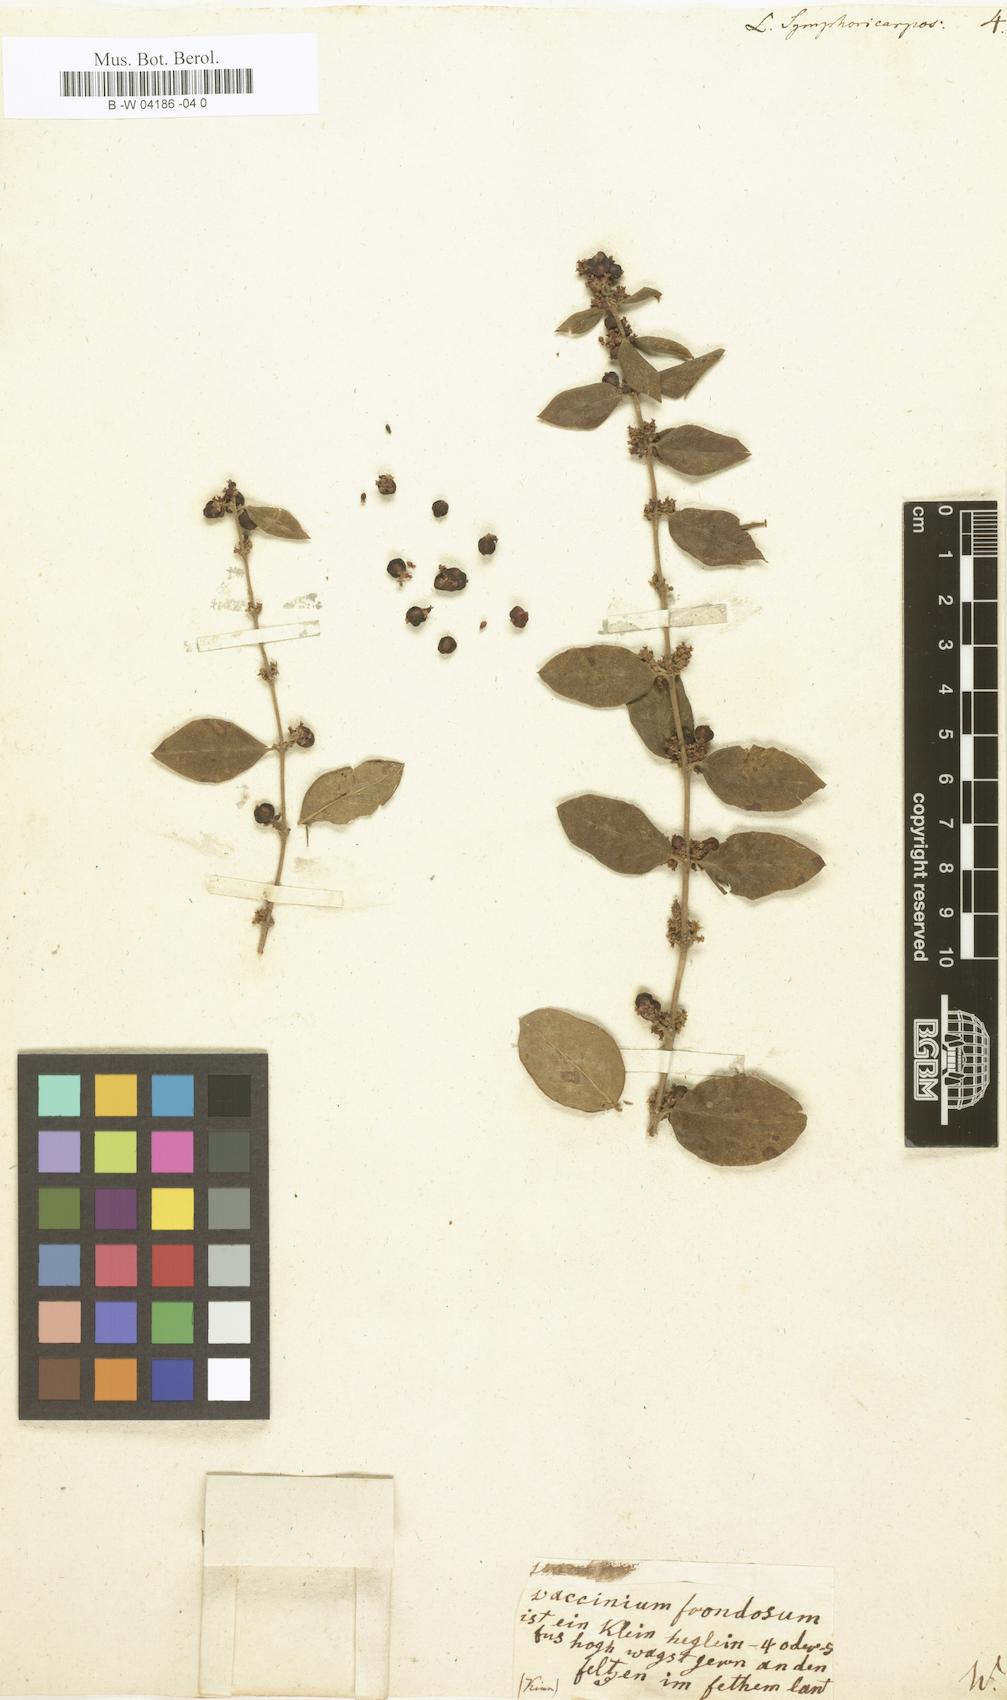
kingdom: Plantae
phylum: Tracheophyta
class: Magnoliopsida
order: Dipsacales
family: Caprifoliaceae
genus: Symphoricarpos
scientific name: Symphoricarpos orbiculatus
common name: Coralberry
